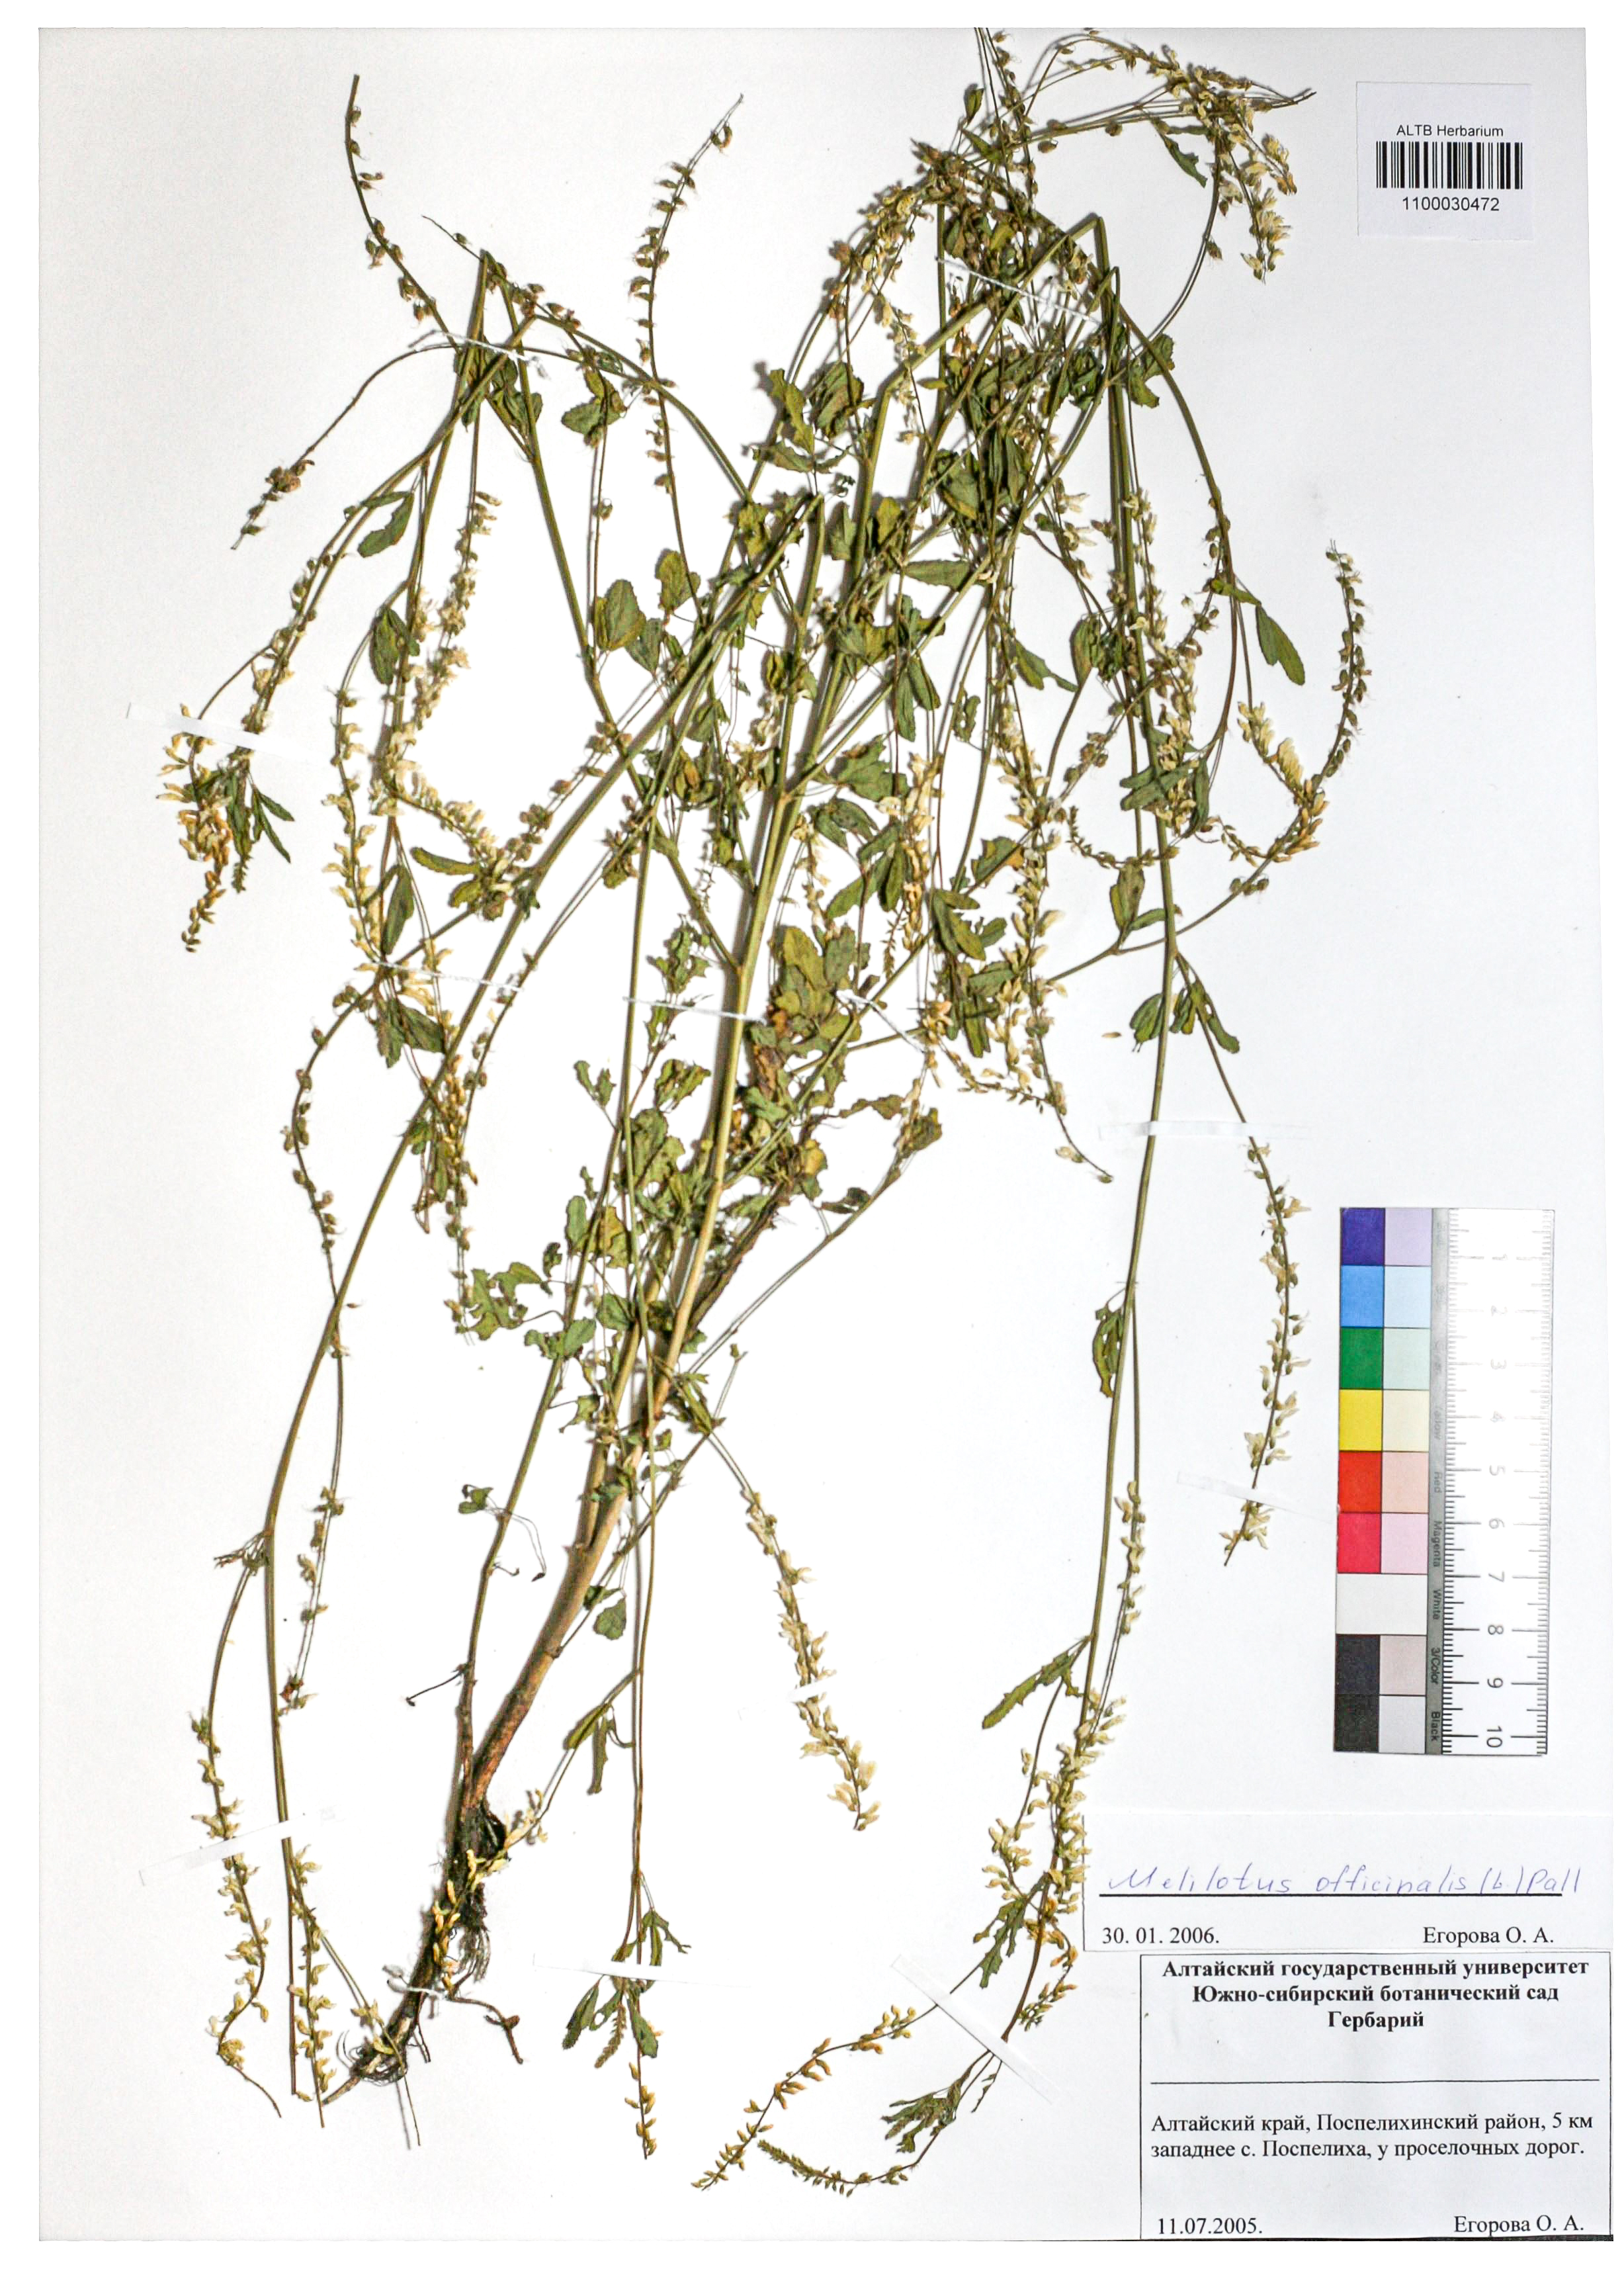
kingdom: Plantae
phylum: Tracheophyta
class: Magnoliopsida
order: Fabales
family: Fabaceae
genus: Melilotus
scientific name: Melilotus officinalis
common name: Sweetclover
